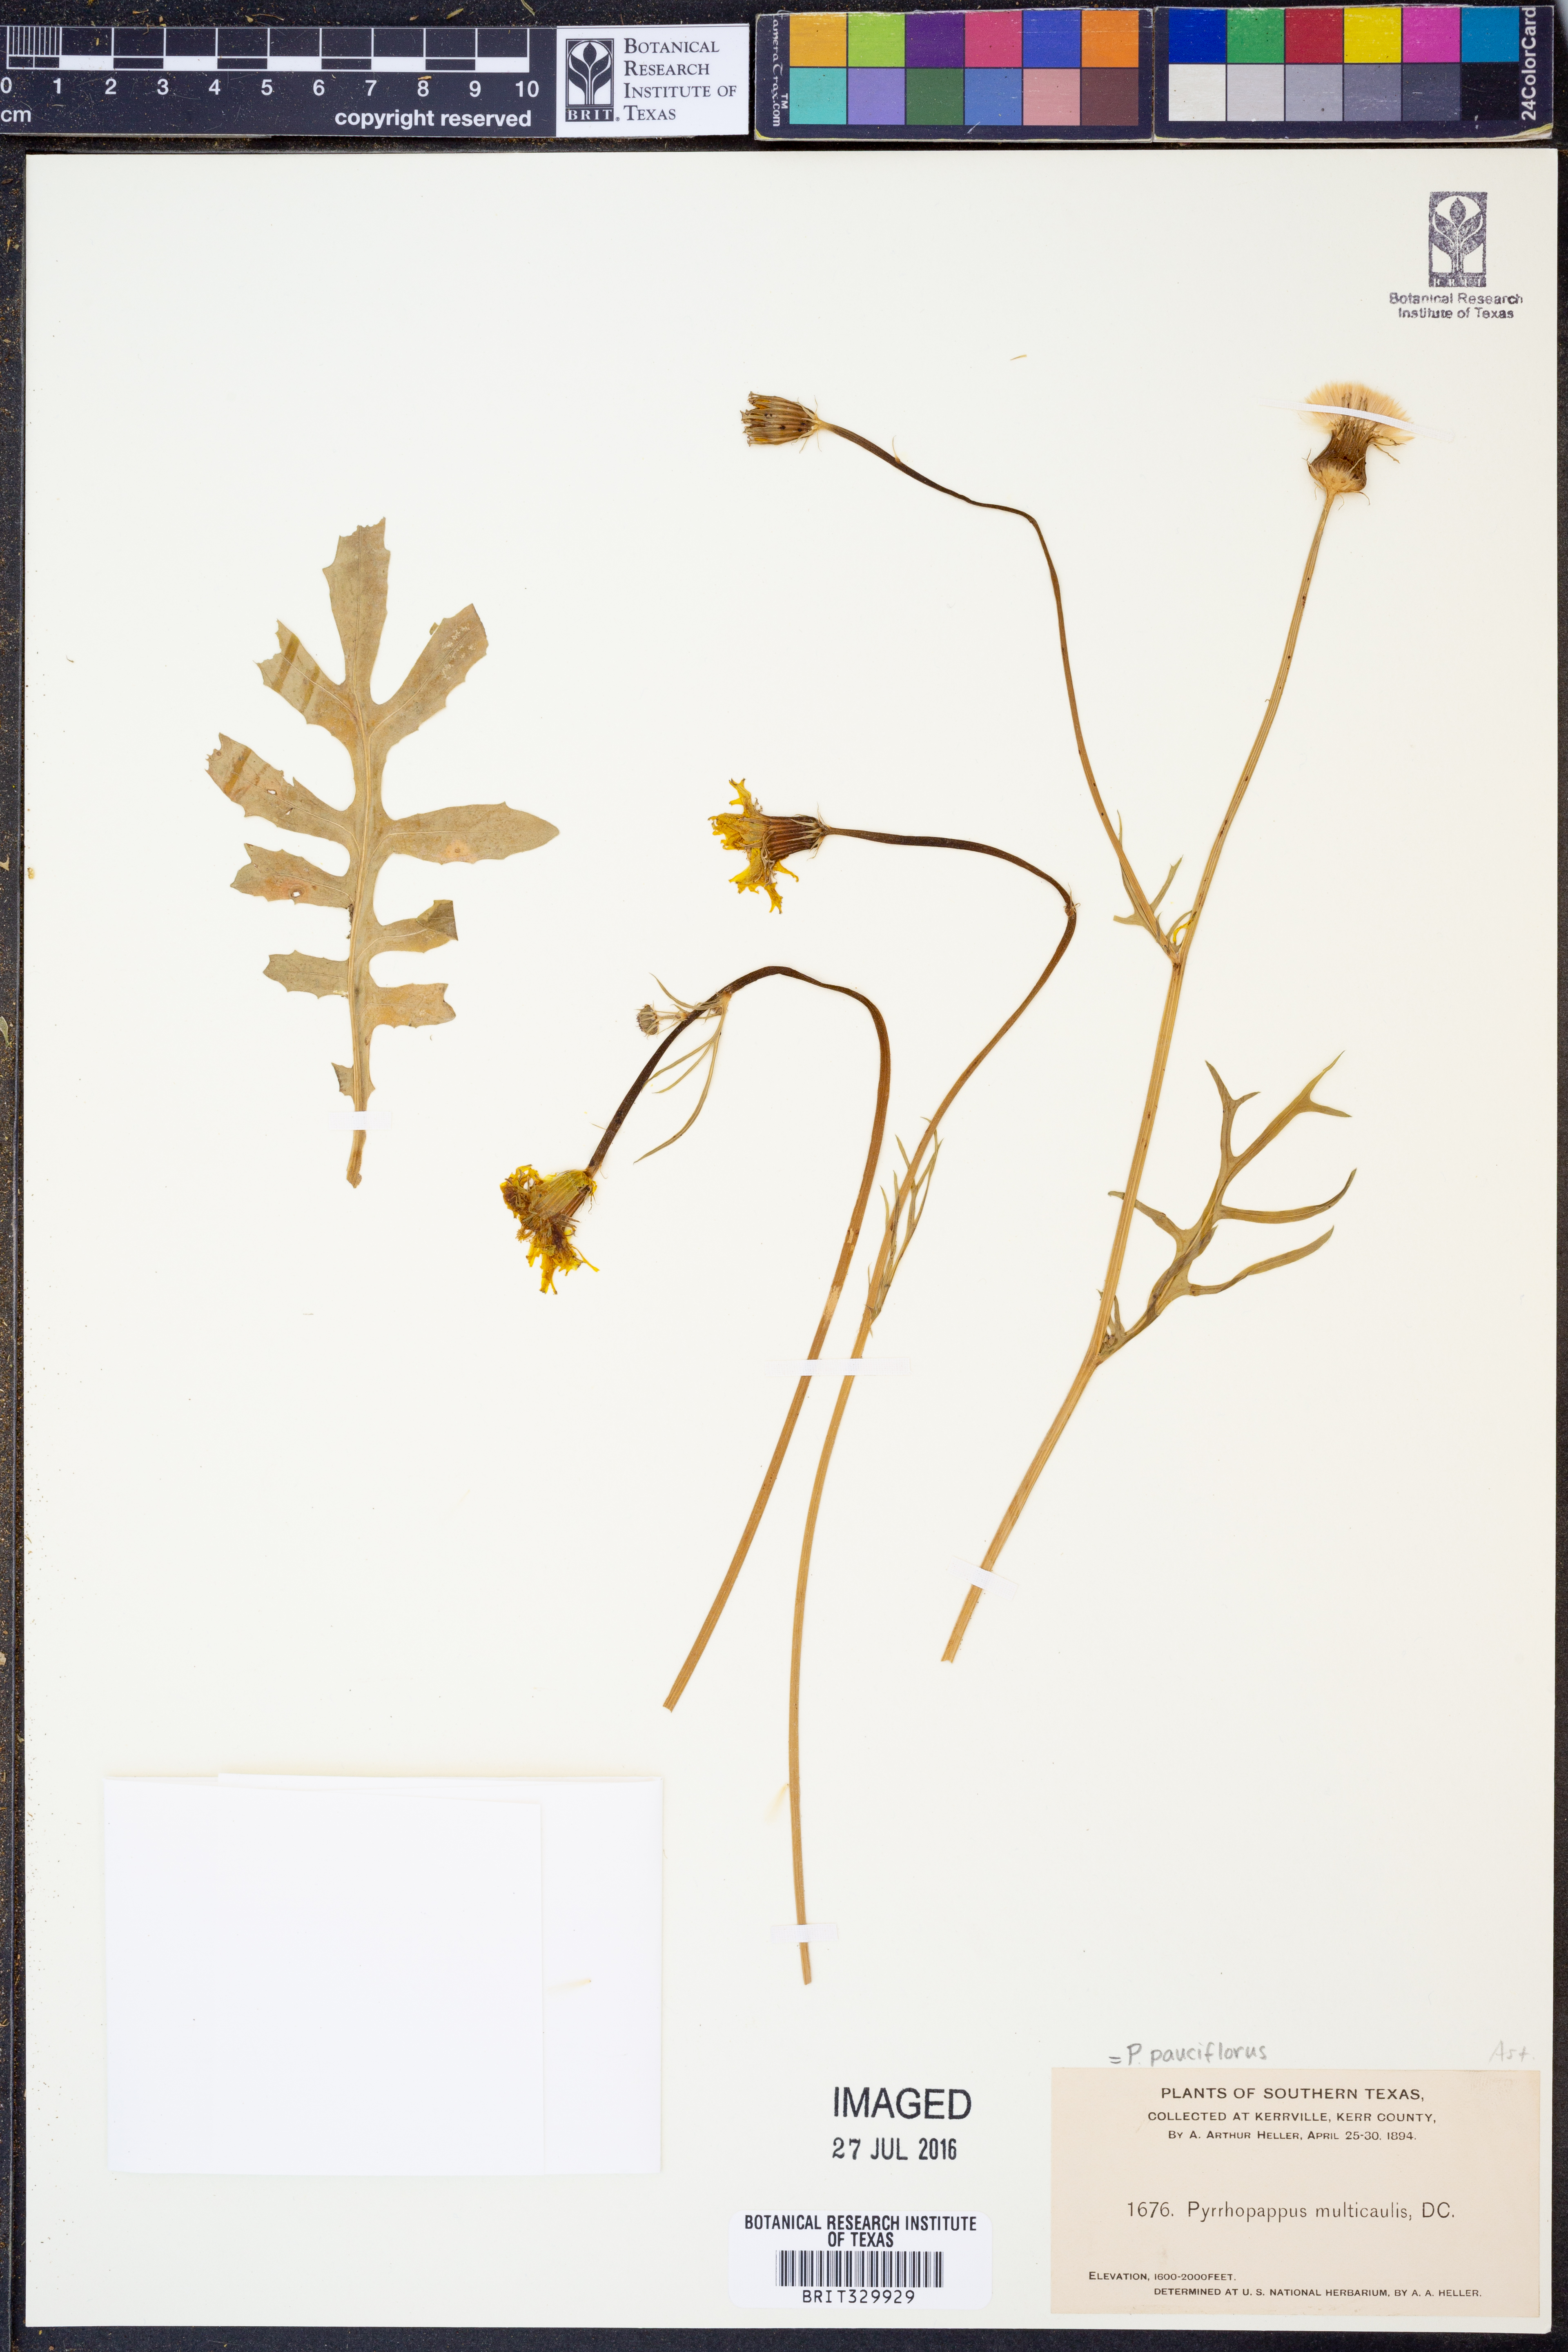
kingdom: Plantae
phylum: Tracheophyta
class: Magnoliopsida
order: Asterales
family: Asteraceae
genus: Pyrrhopappus
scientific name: Pyrrhopappus pauciflorus
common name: Texas false dandelion
